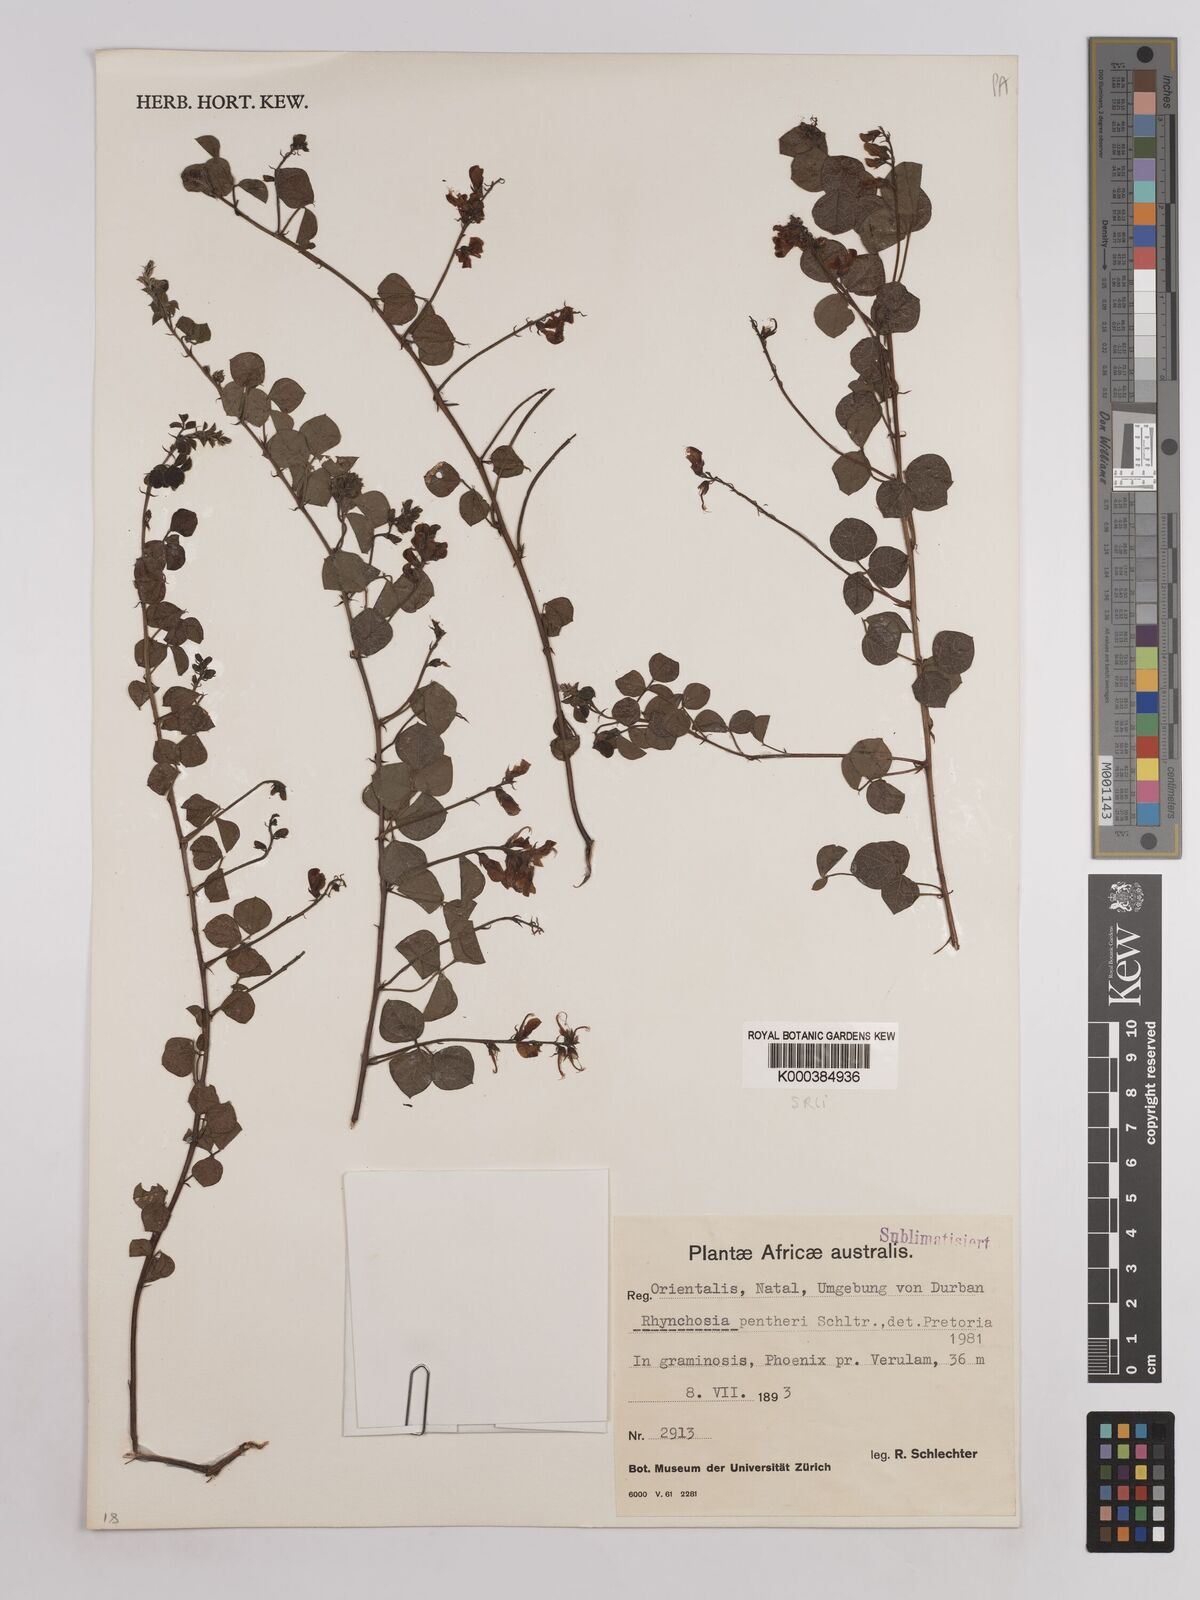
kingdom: Plantae
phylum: Tracheophyta
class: Magnoliopsida
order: Fabales
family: Fabaceae
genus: Rhynchosia
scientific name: Rhynchosia pentheri
